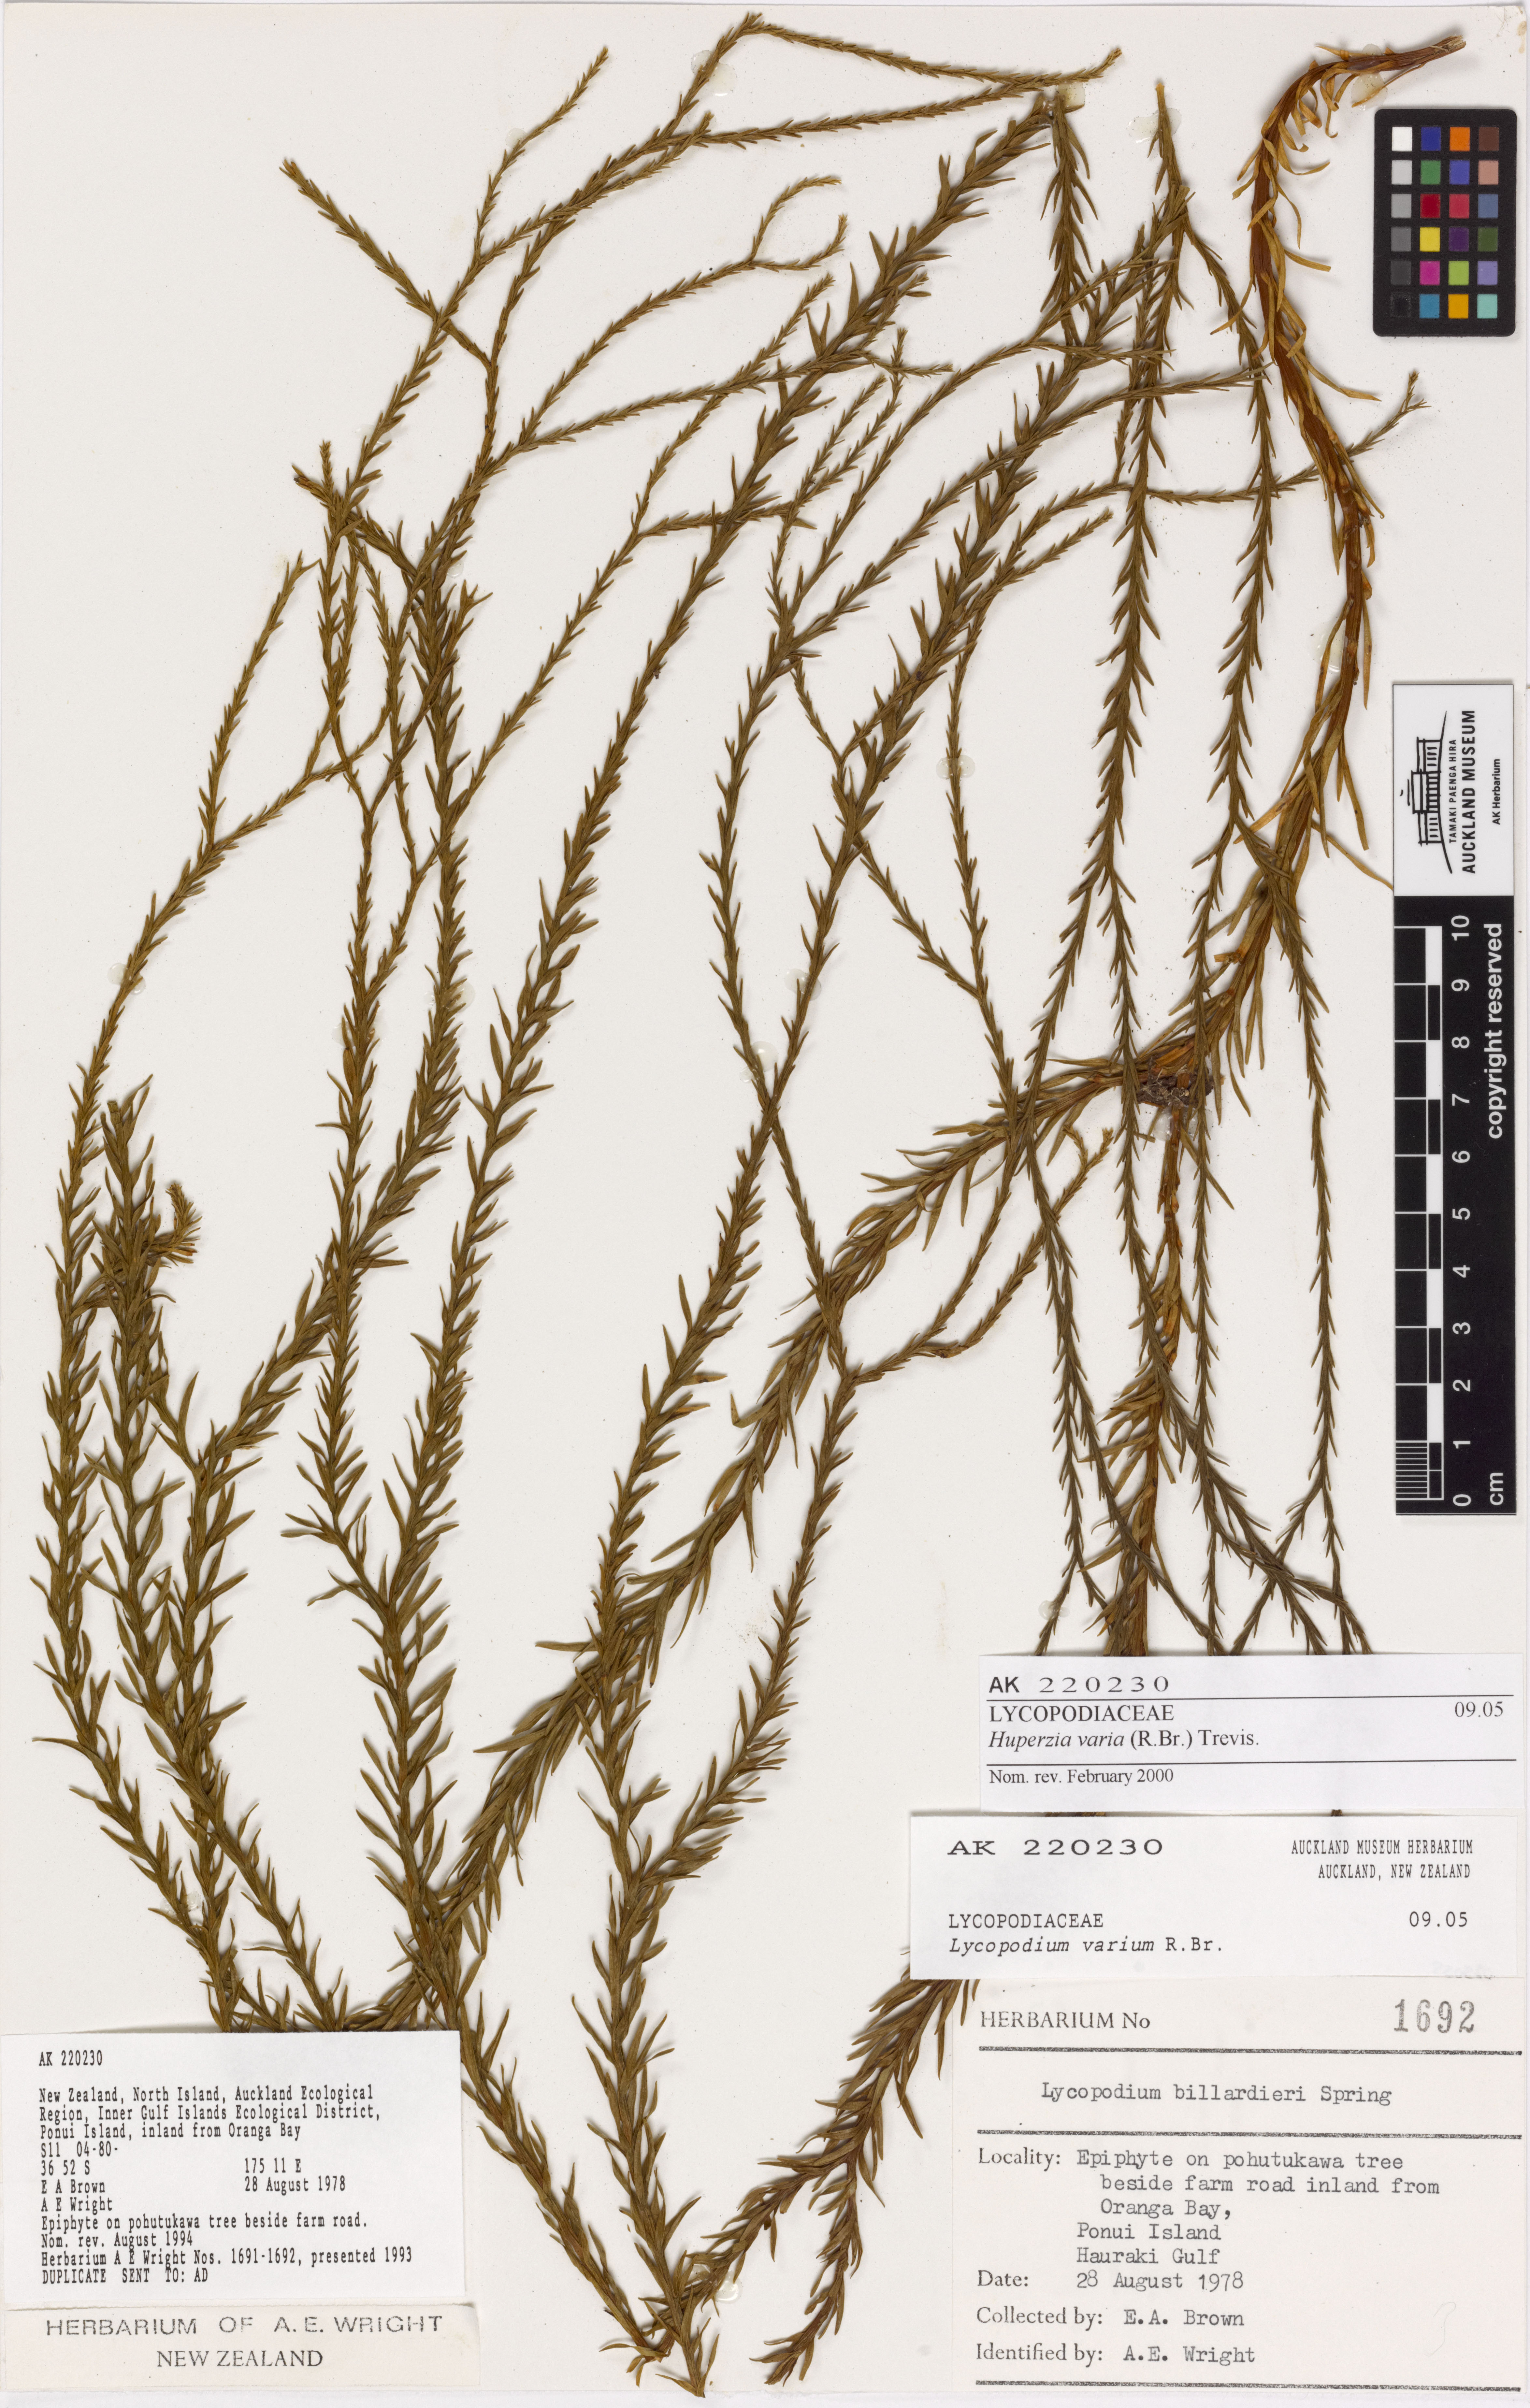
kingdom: Plantae
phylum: Tracheophyta
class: Lycopodiopsida
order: Lycopodiales
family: Lycopodiaceae
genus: Phlegmariurus
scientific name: Phlegmariurus
